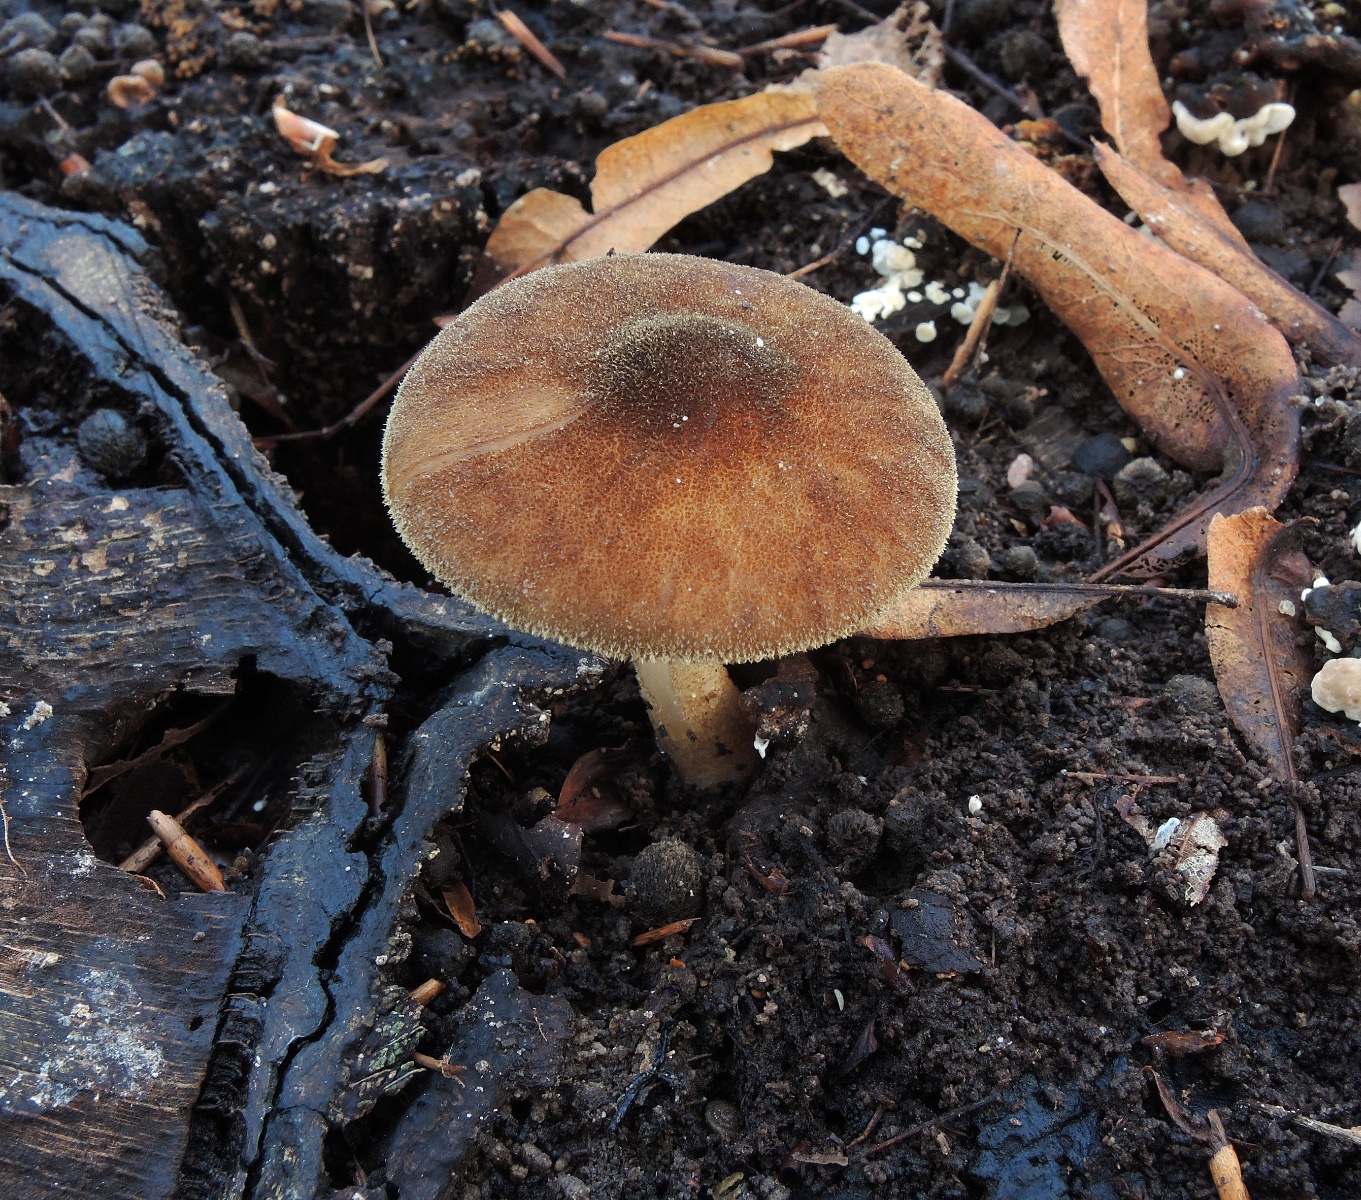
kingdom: Fungi
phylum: Basidiomycota
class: Agaricomycetes
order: Agaricales
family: Pluteaceae
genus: Pluteus
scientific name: Pluteus umbrosus
